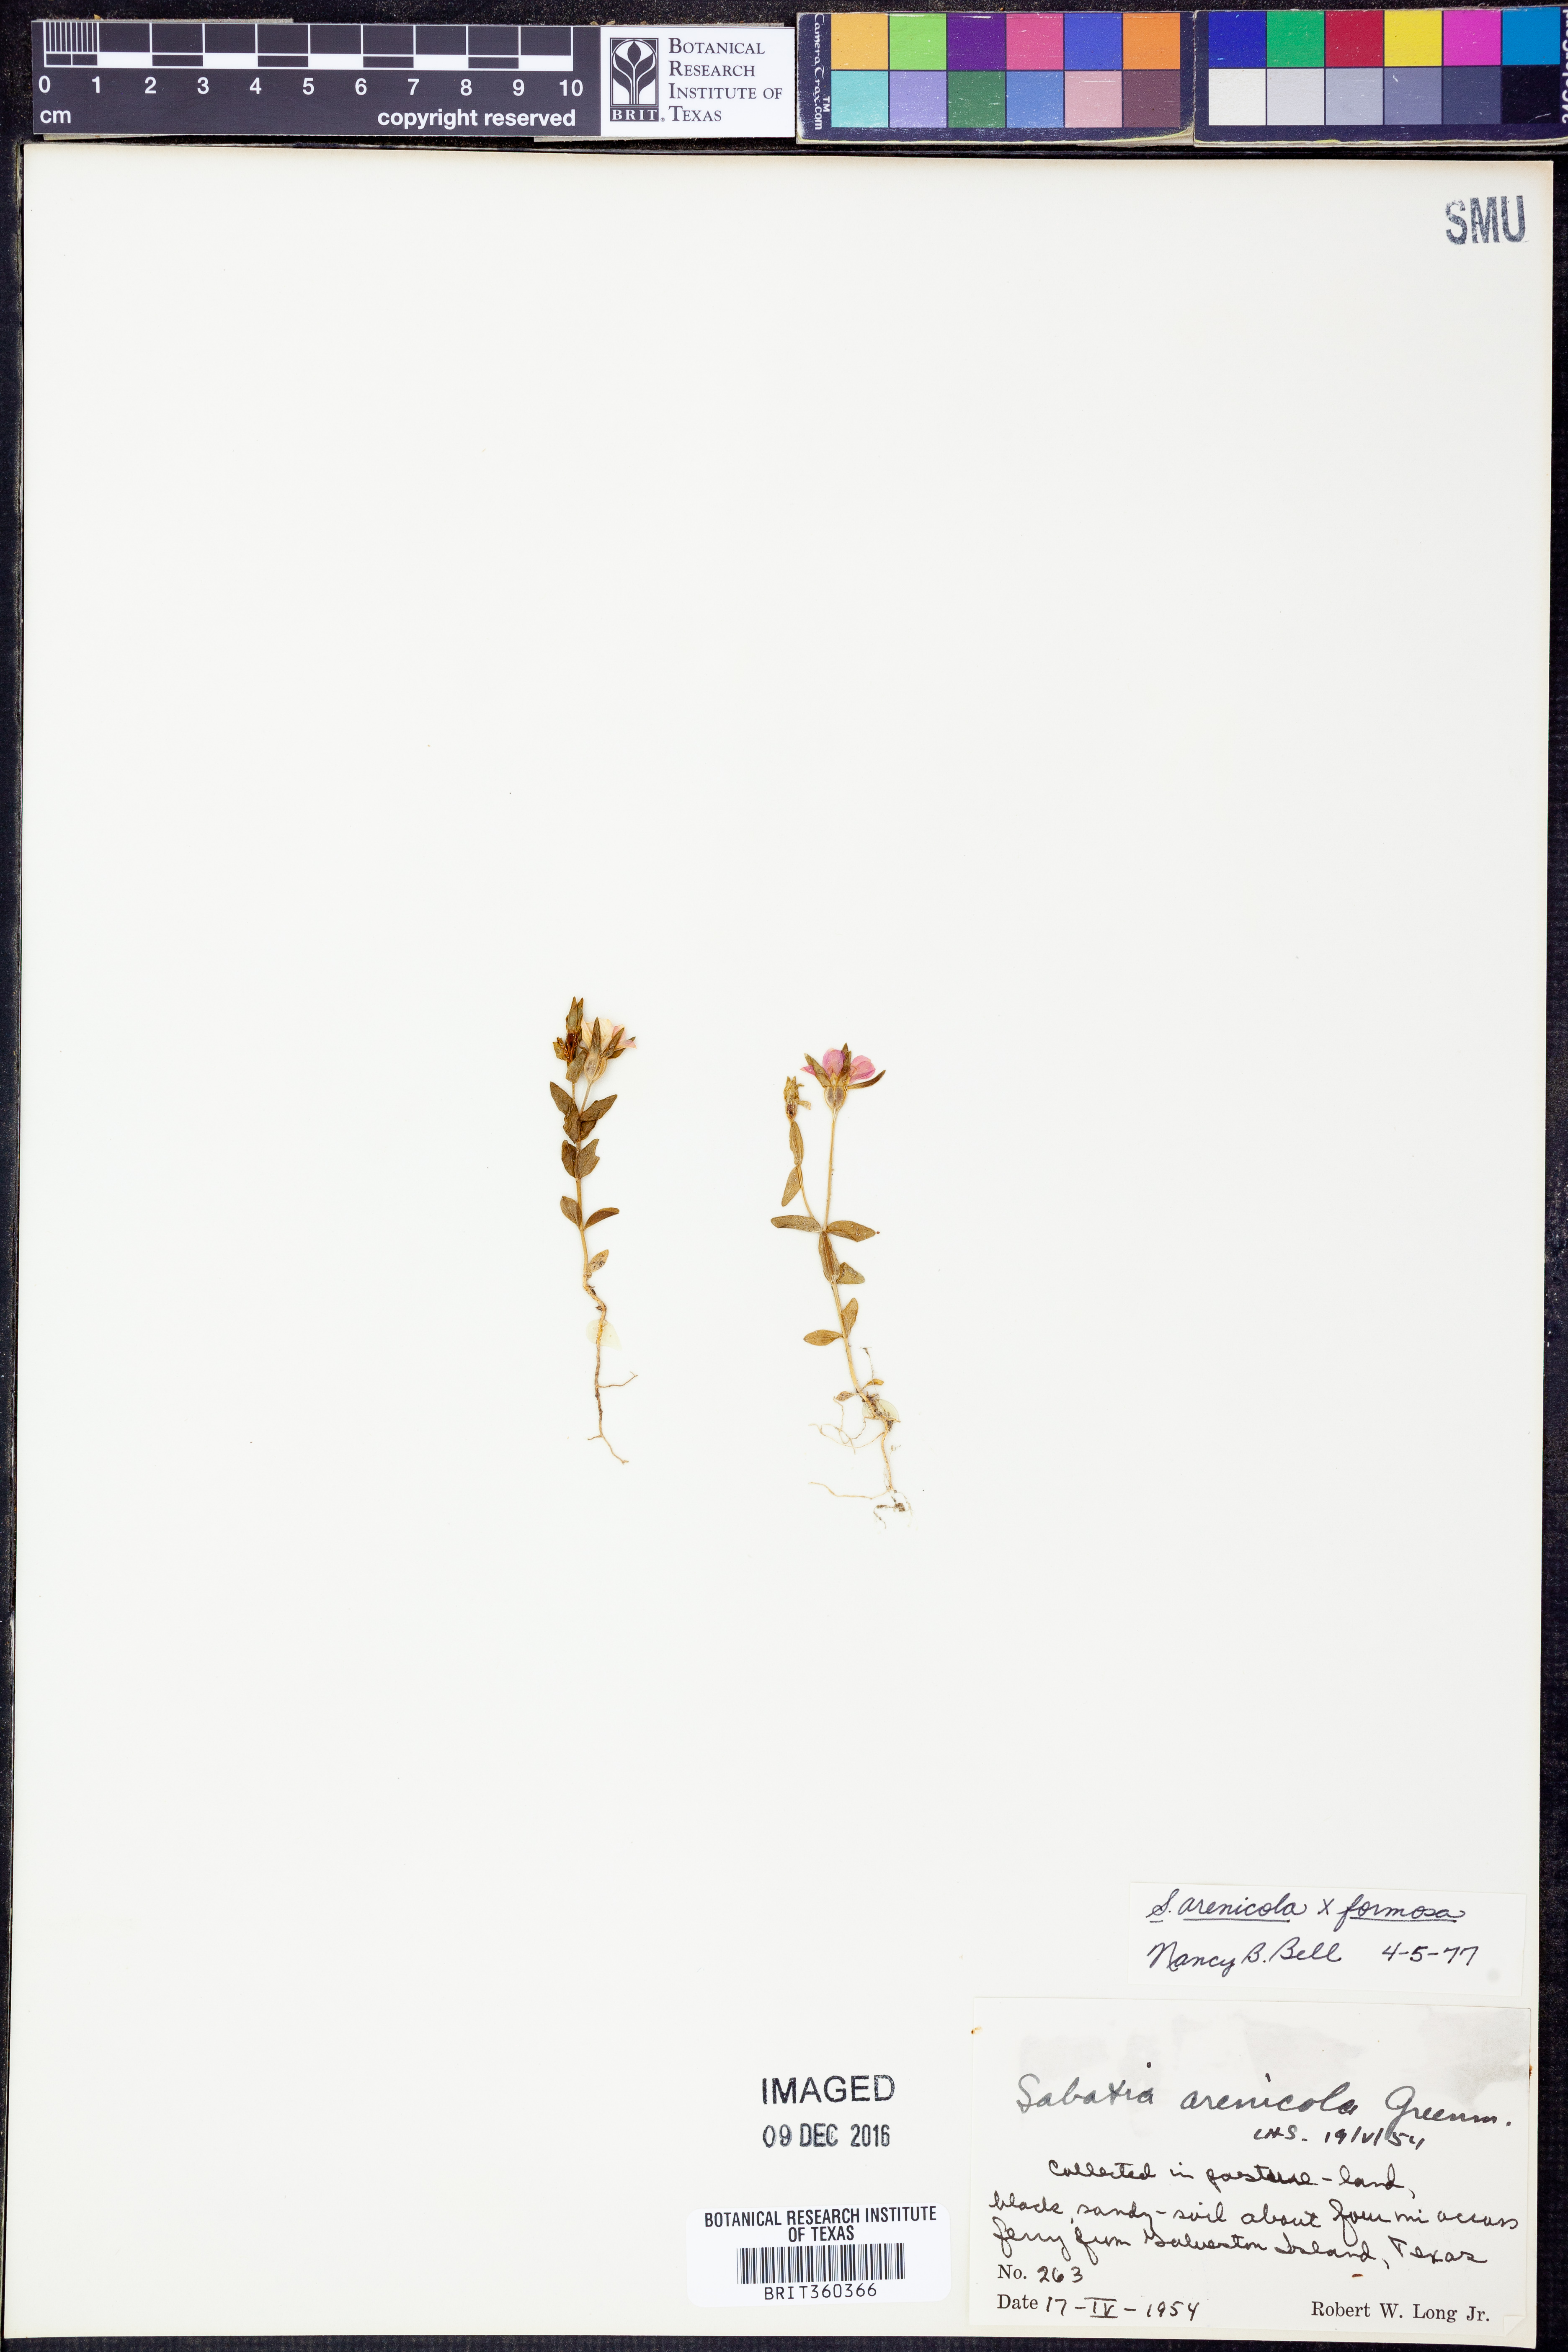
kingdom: Plantae
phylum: Tracheophyta
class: Magnoliopsida
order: Gentianales
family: Gentianaceae
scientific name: Gentianaceae
